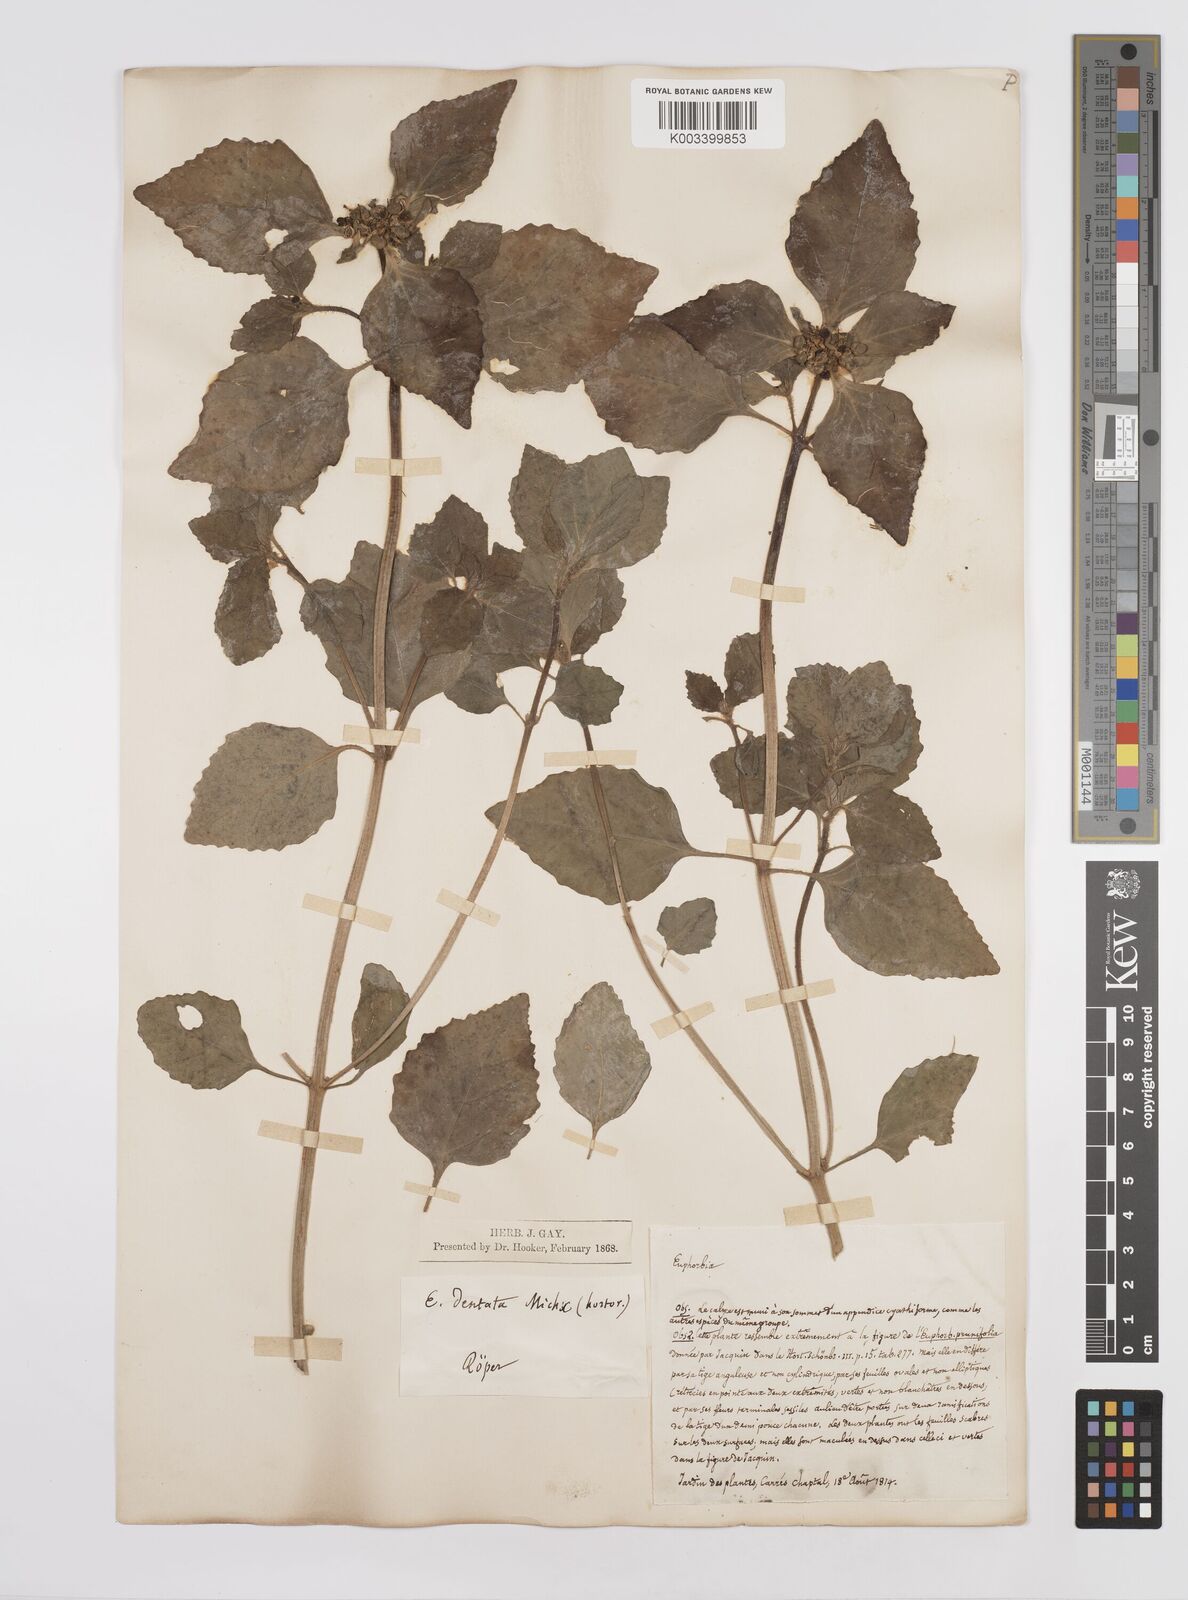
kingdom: Plantae
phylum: Tracheophyta
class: Magnoliopsida
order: Malpighiales
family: Euphorbiaceae
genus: Euphorbia
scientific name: Euphorbia dentata
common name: Dentate spurge
